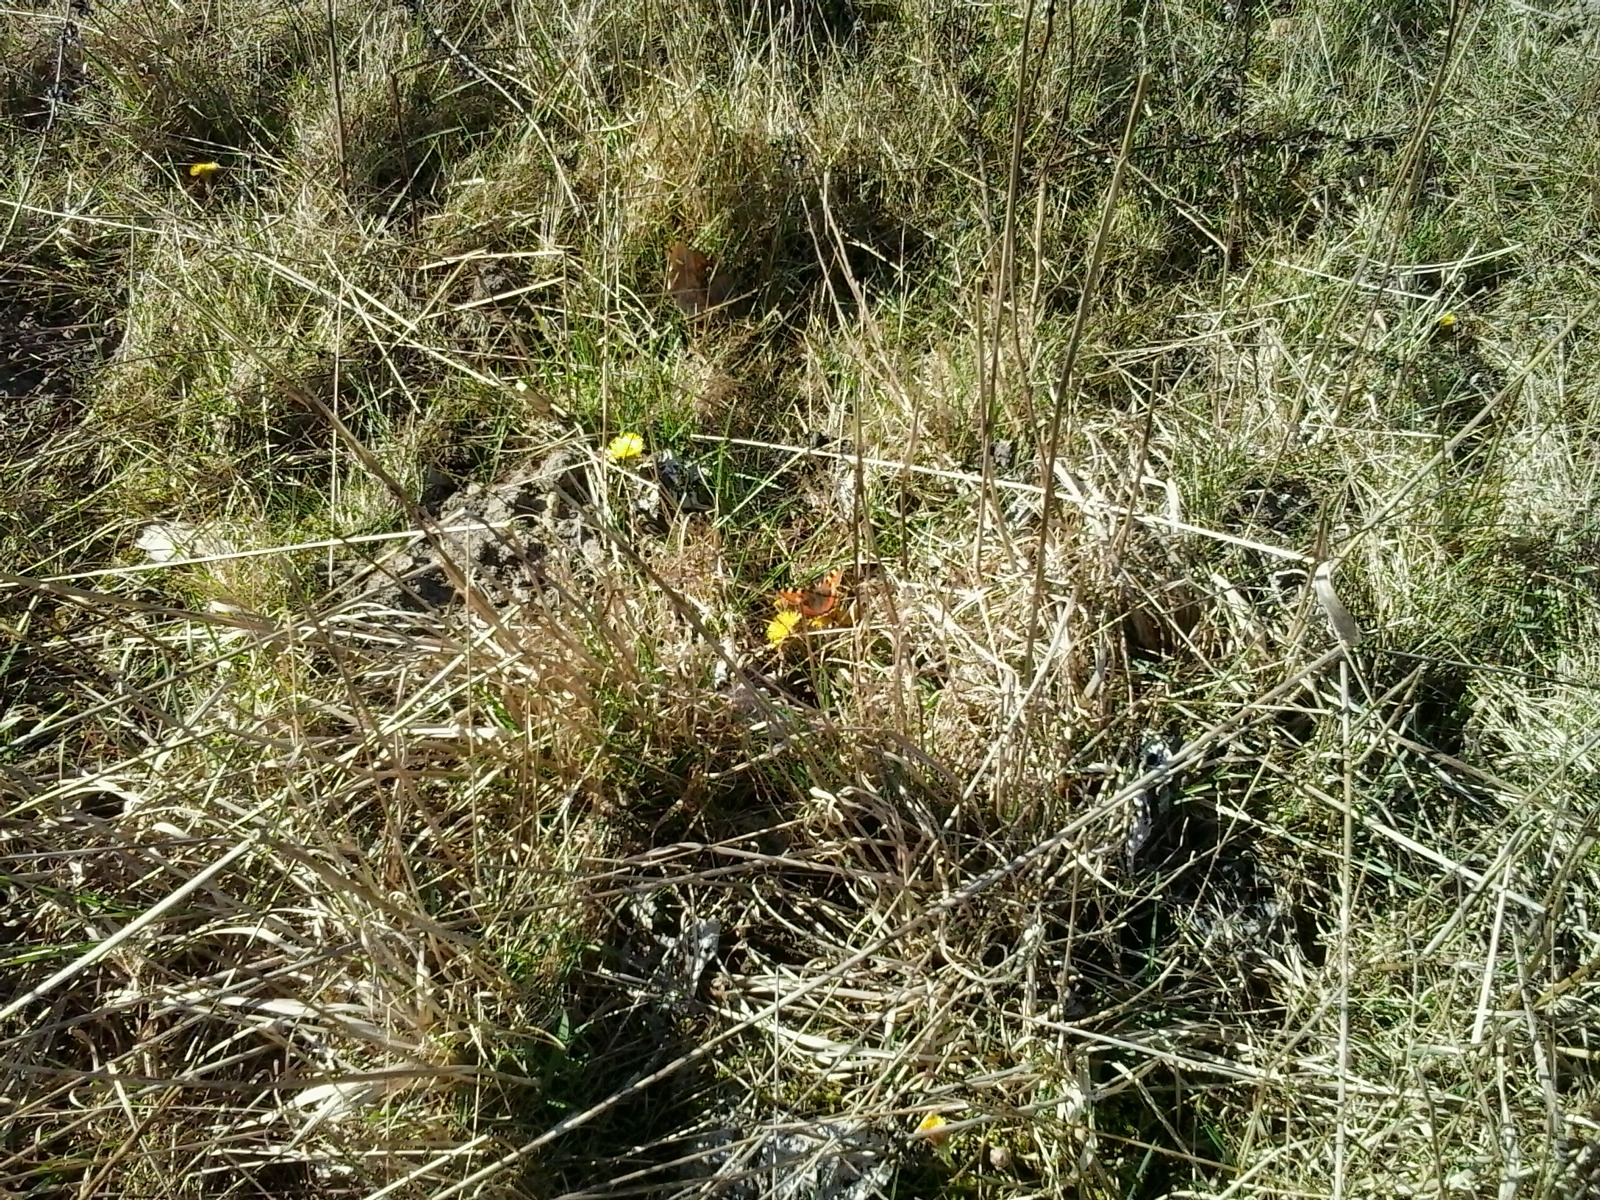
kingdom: Animalia
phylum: Arthropoda
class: Insecta
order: Lepidoptera
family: Nymphalidae
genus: Aglais
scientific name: Aglais urticae
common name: Nældens takvinge
